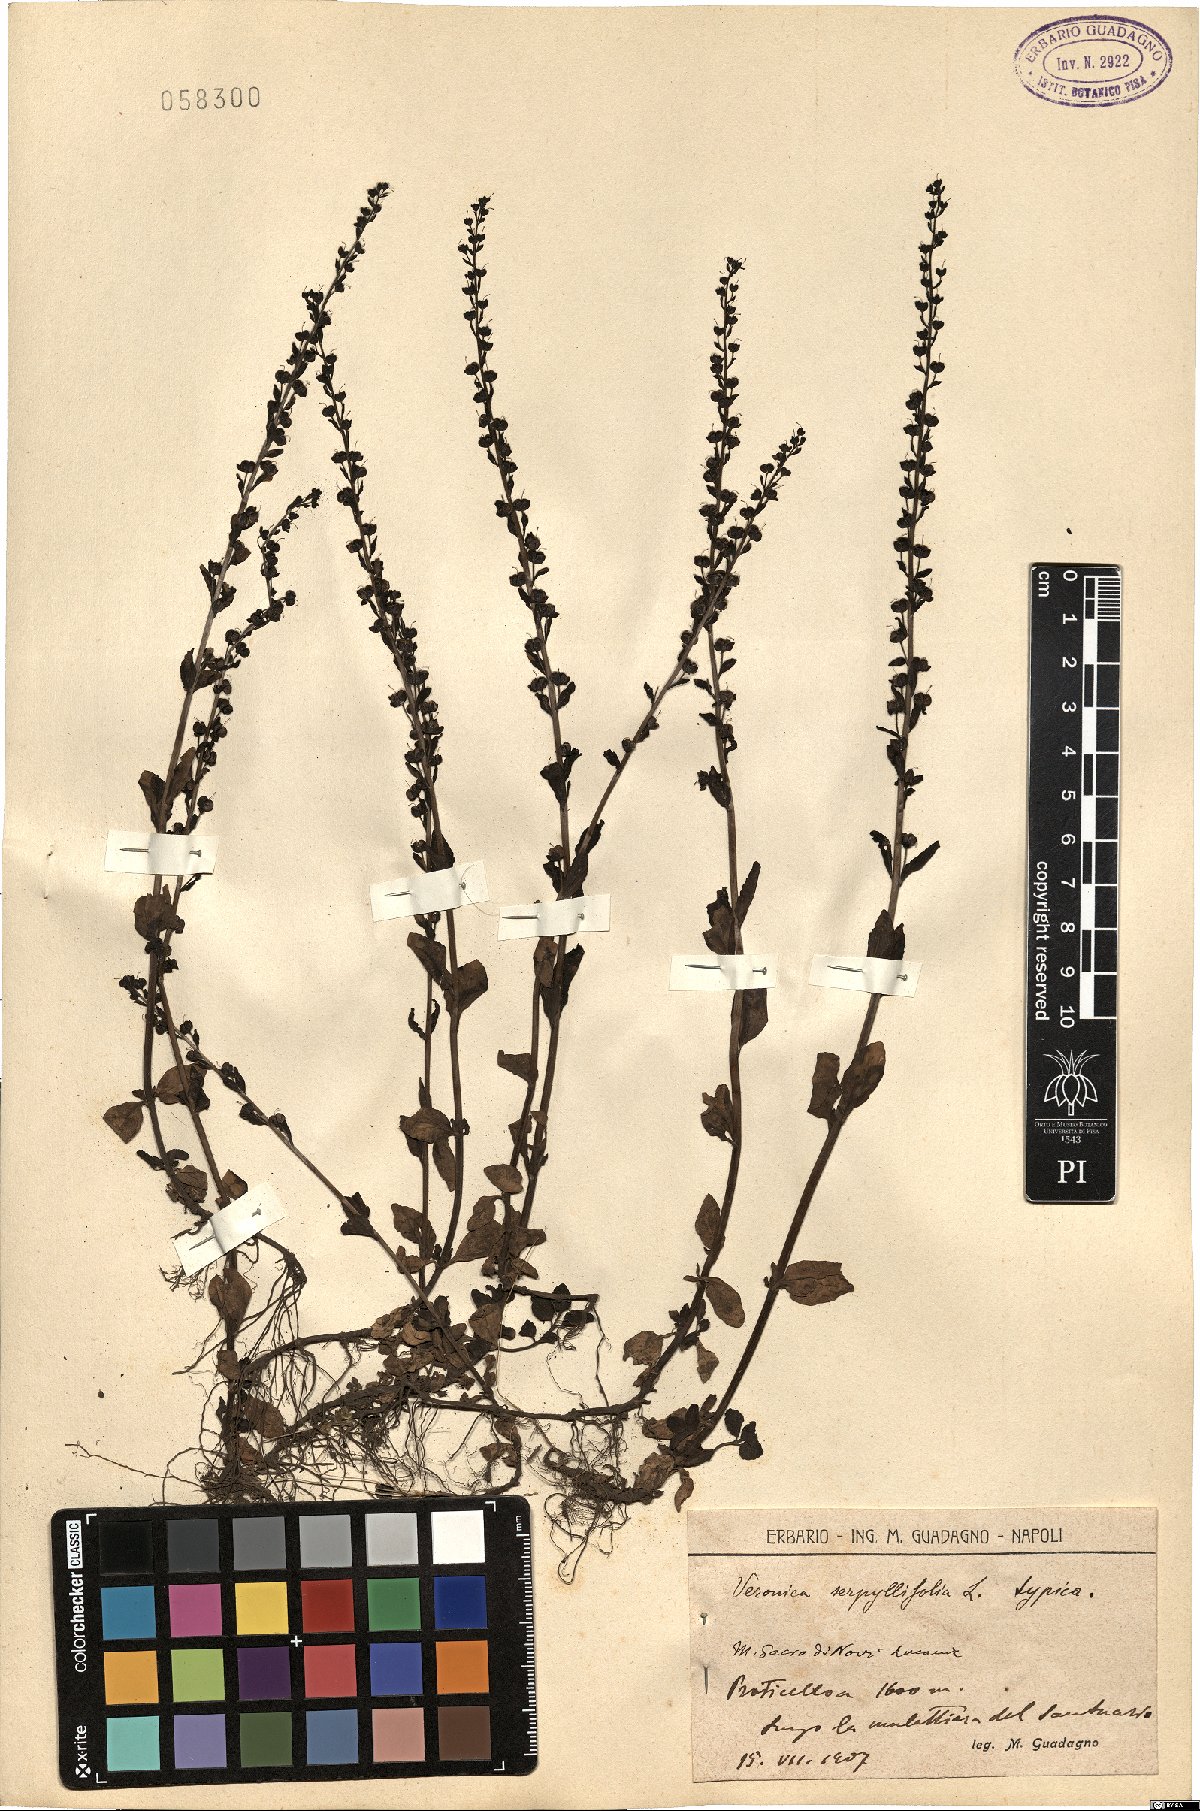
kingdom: Plantae
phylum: Tracheophyta
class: Magnoliopsida
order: Lamiales
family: Plantaginaceae
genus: Veronica
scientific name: Veronica serpyllifolia
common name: Thyme-leaved speedwell
